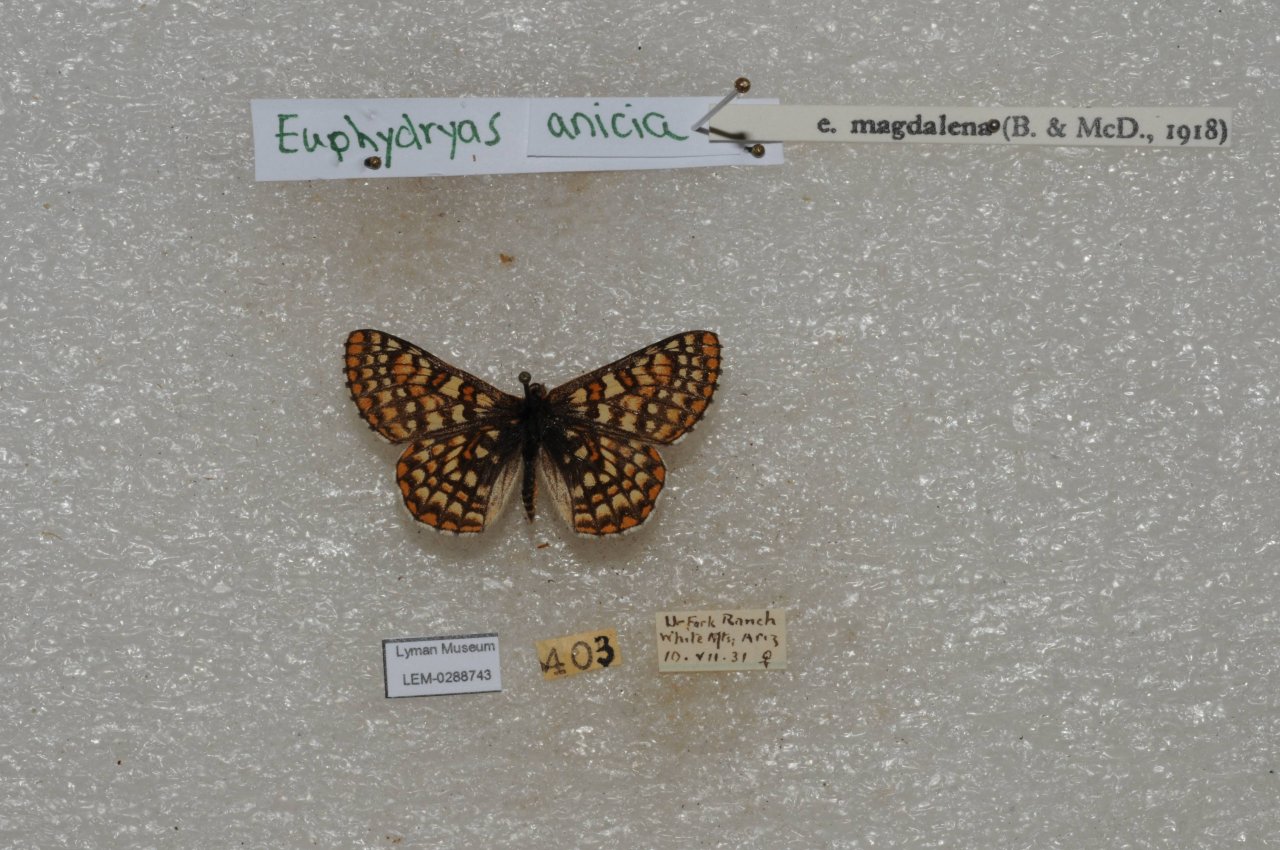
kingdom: Animalia
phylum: Arthropoda
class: Insecta
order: Lepidoptera
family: Nymphalidae
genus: Occidryas
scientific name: Occidryas anicia
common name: Anicia Checkerspot
